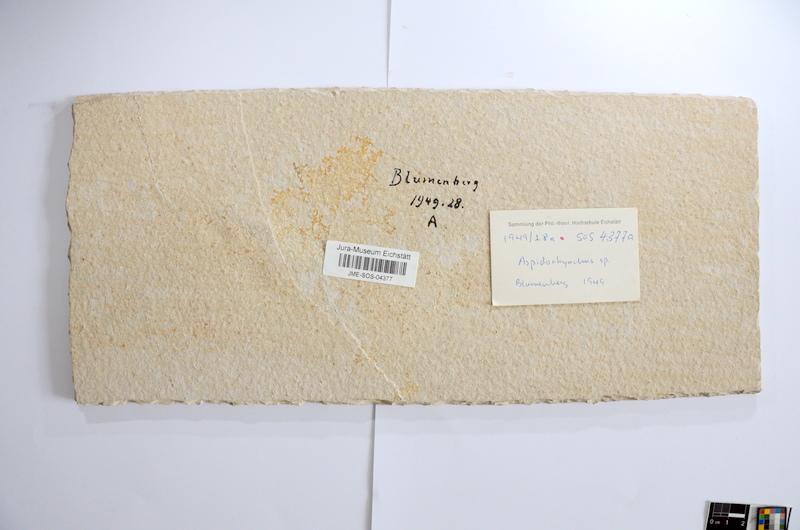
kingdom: Animalia
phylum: Chordata
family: Aspidorhynchidae
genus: Aspidorhynchus
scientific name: Aspidorhynchus acutirostris
